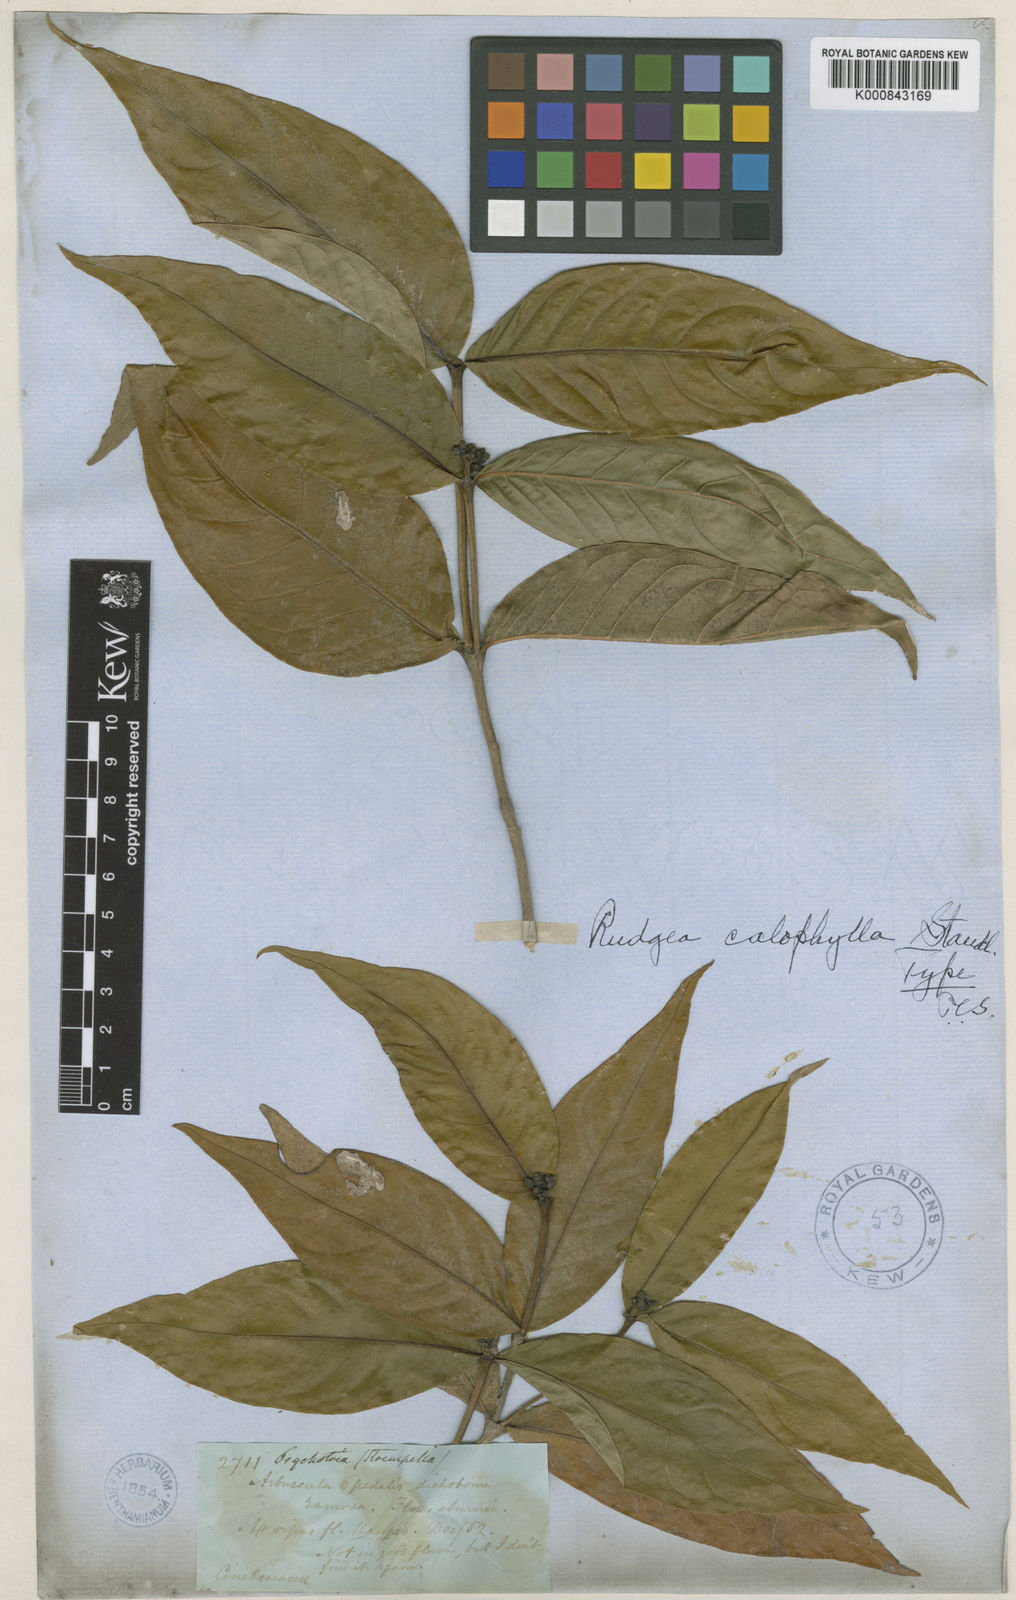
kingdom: Plantae
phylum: Tracheophyta
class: Magnoliopsida
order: Gentianales
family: Rubiaceae
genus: Rudgea
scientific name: Rudgea
